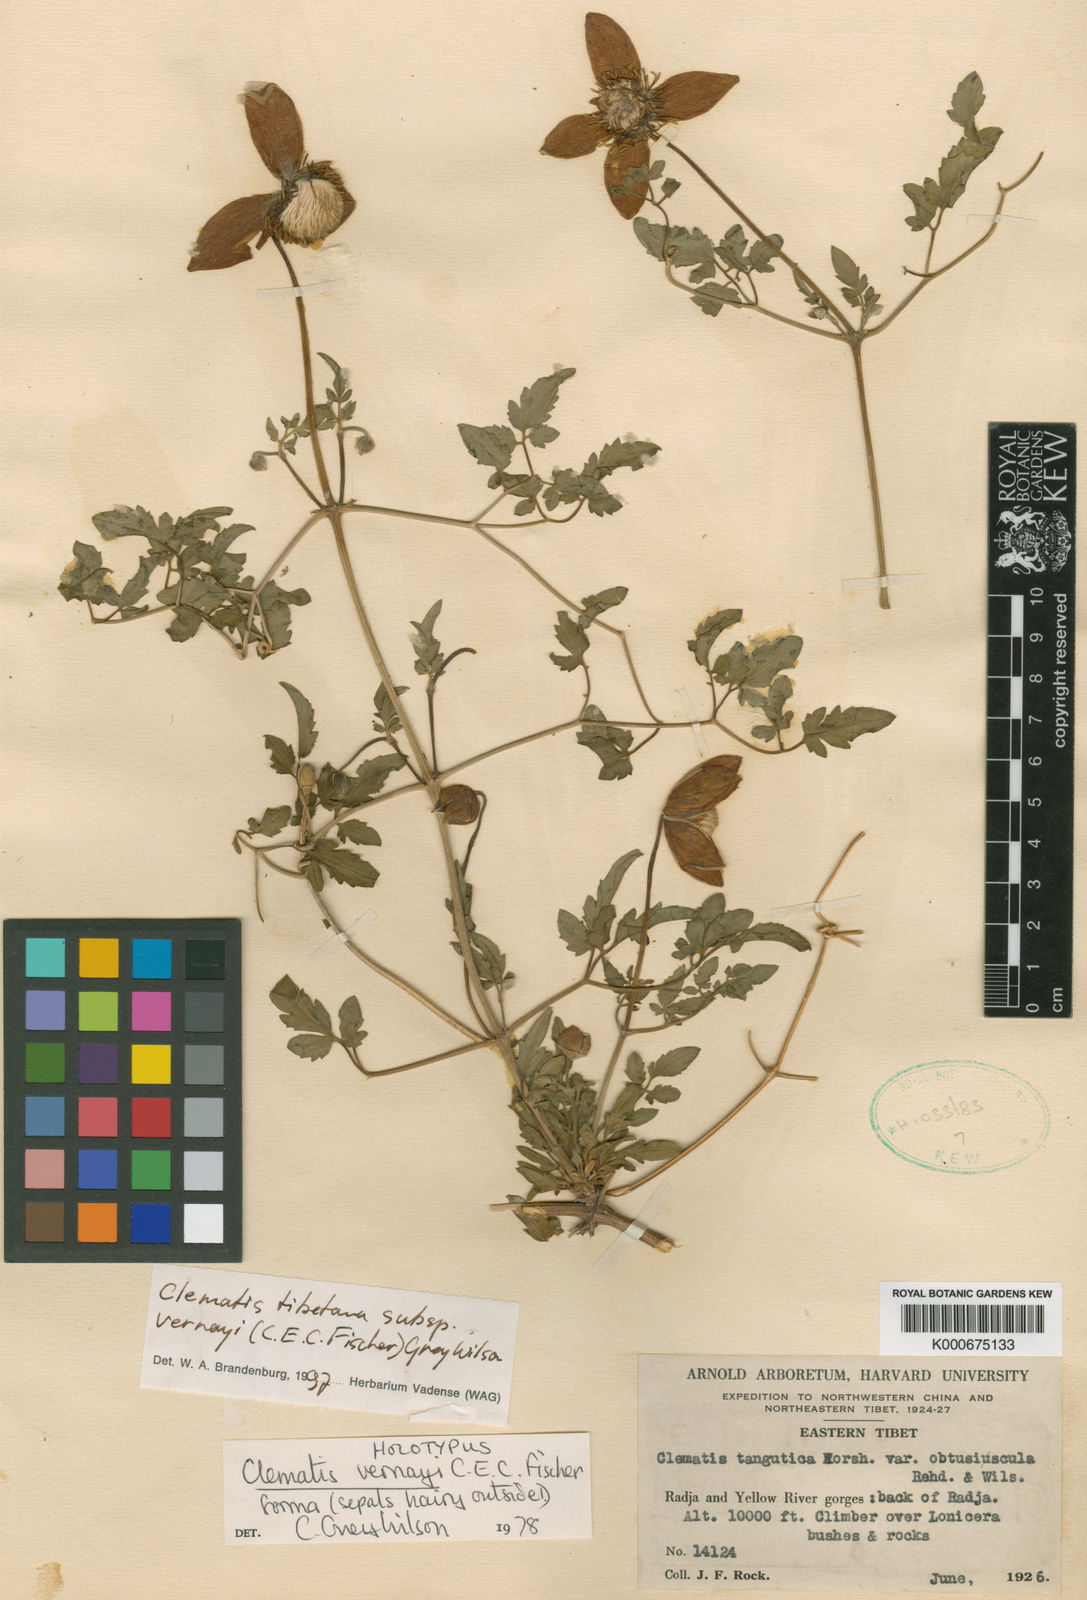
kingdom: Plantae
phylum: Tracheophyta
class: Magnoliopsida
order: Ranunculales
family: Ranunculaceae
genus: Clematis
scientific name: Clematis tibetana
